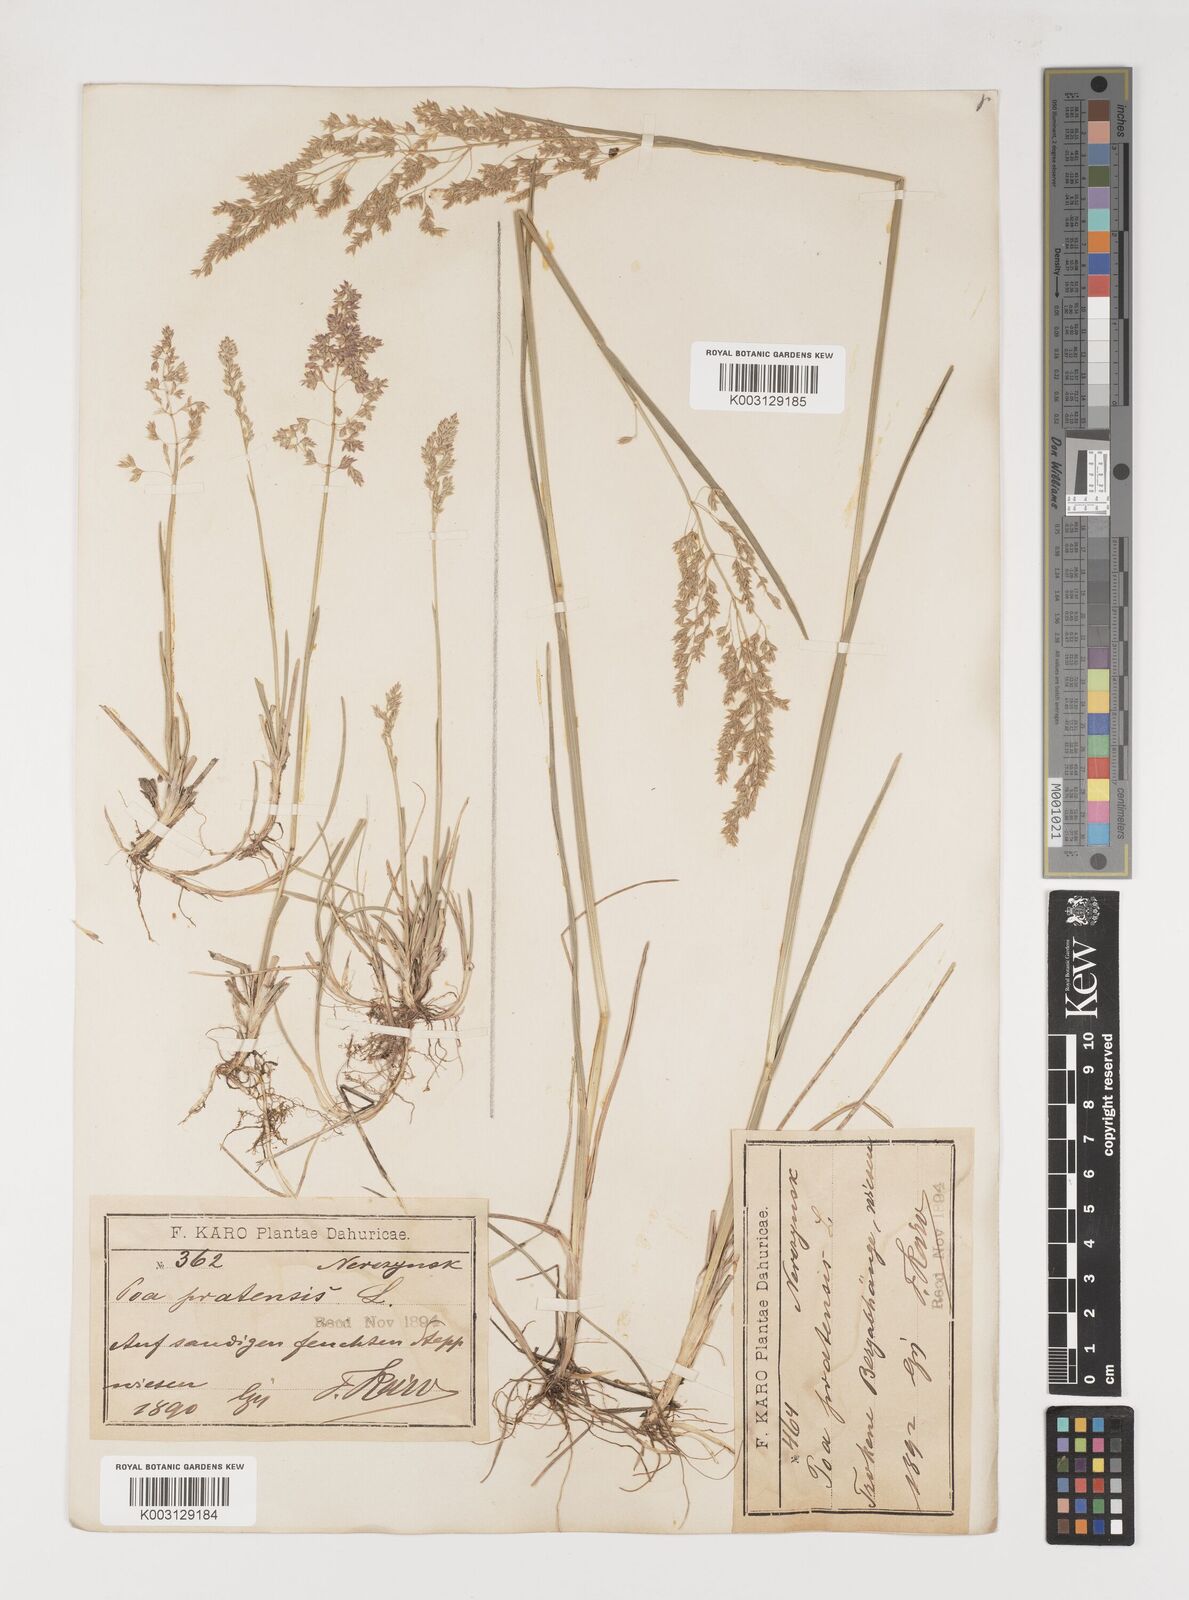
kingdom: Plantae
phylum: Tracheophyta
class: Liliopsida
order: Poales
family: Poaceae
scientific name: Poaceae
